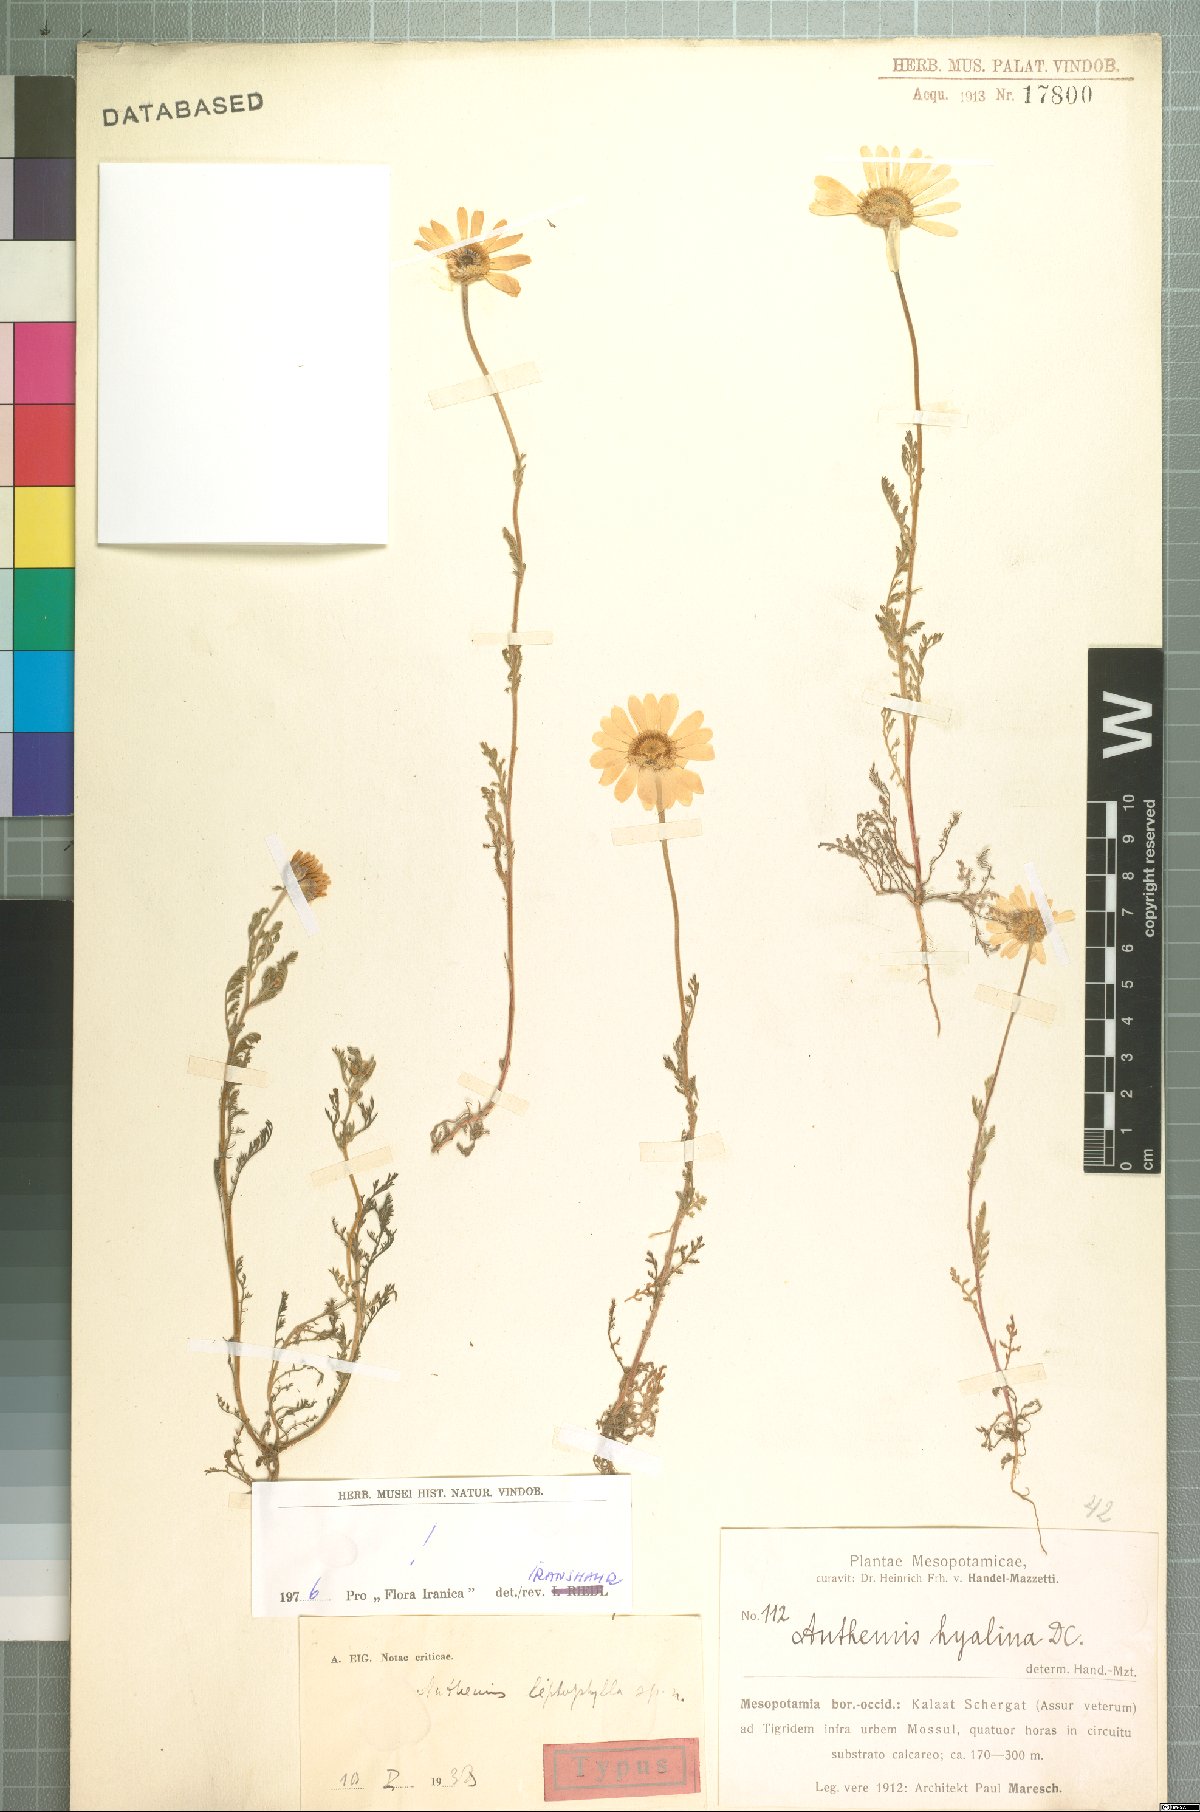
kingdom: Plantae
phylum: Tracheophyta
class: Magnoliopsida
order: Asterales
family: Asteraceae
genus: Anthemis
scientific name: Anthemis leptophylla
